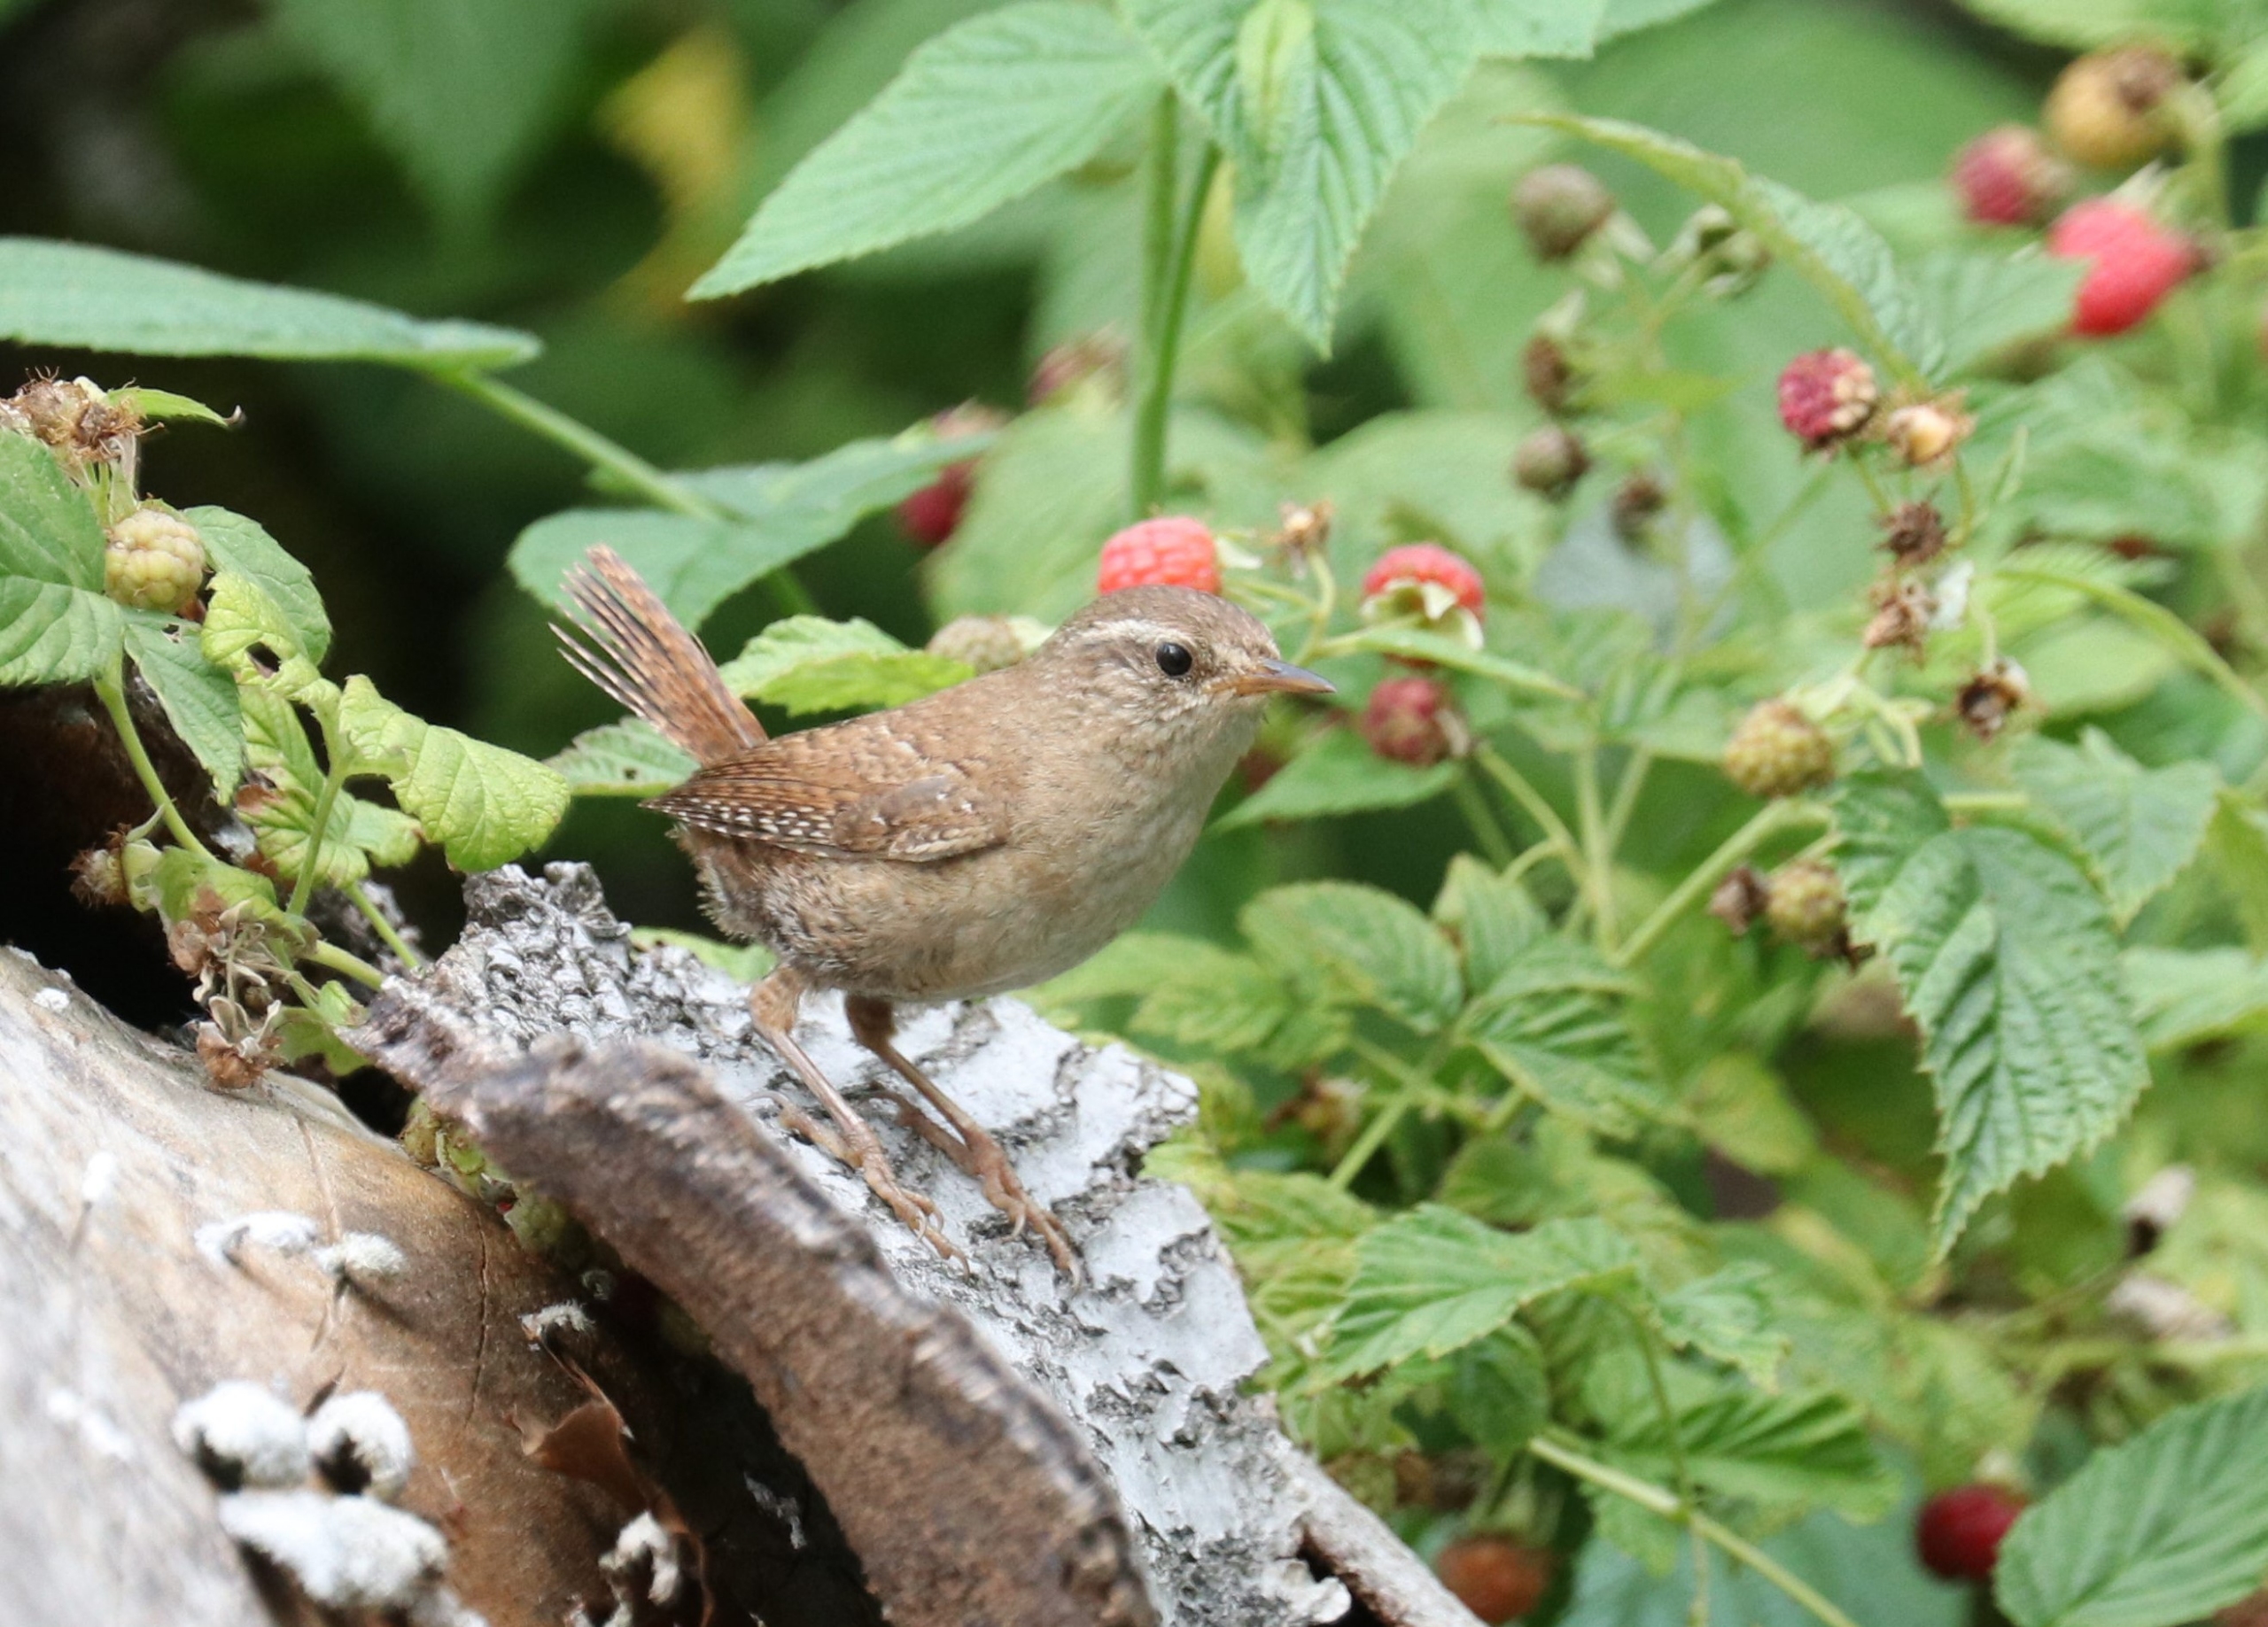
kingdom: Animalia
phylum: Chordata
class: Aves
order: Passeriformes
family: Troglodytidae
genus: Troglodytes
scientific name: Troglodytes troglodytes
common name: Gærdesmutte
